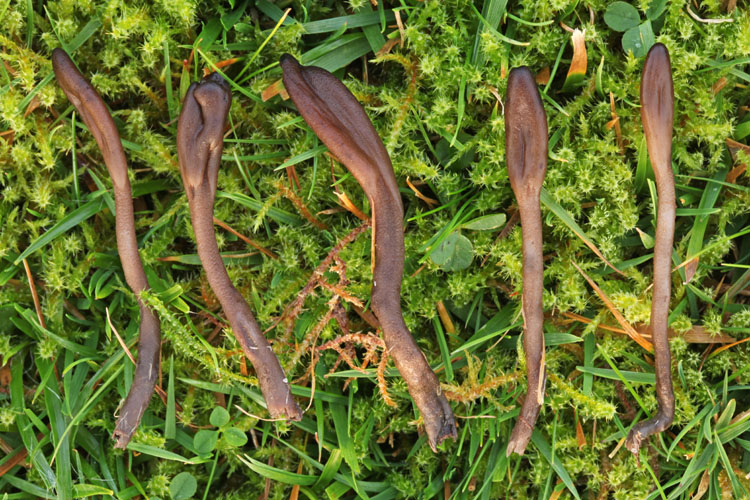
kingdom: Fungi
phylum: Ascomycota
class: Geoglossomycetes
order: Geoglossales
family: Geoglossaceae
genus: Geoglossum
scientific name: Geoglossum fallax
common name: småskællet jordtunge
